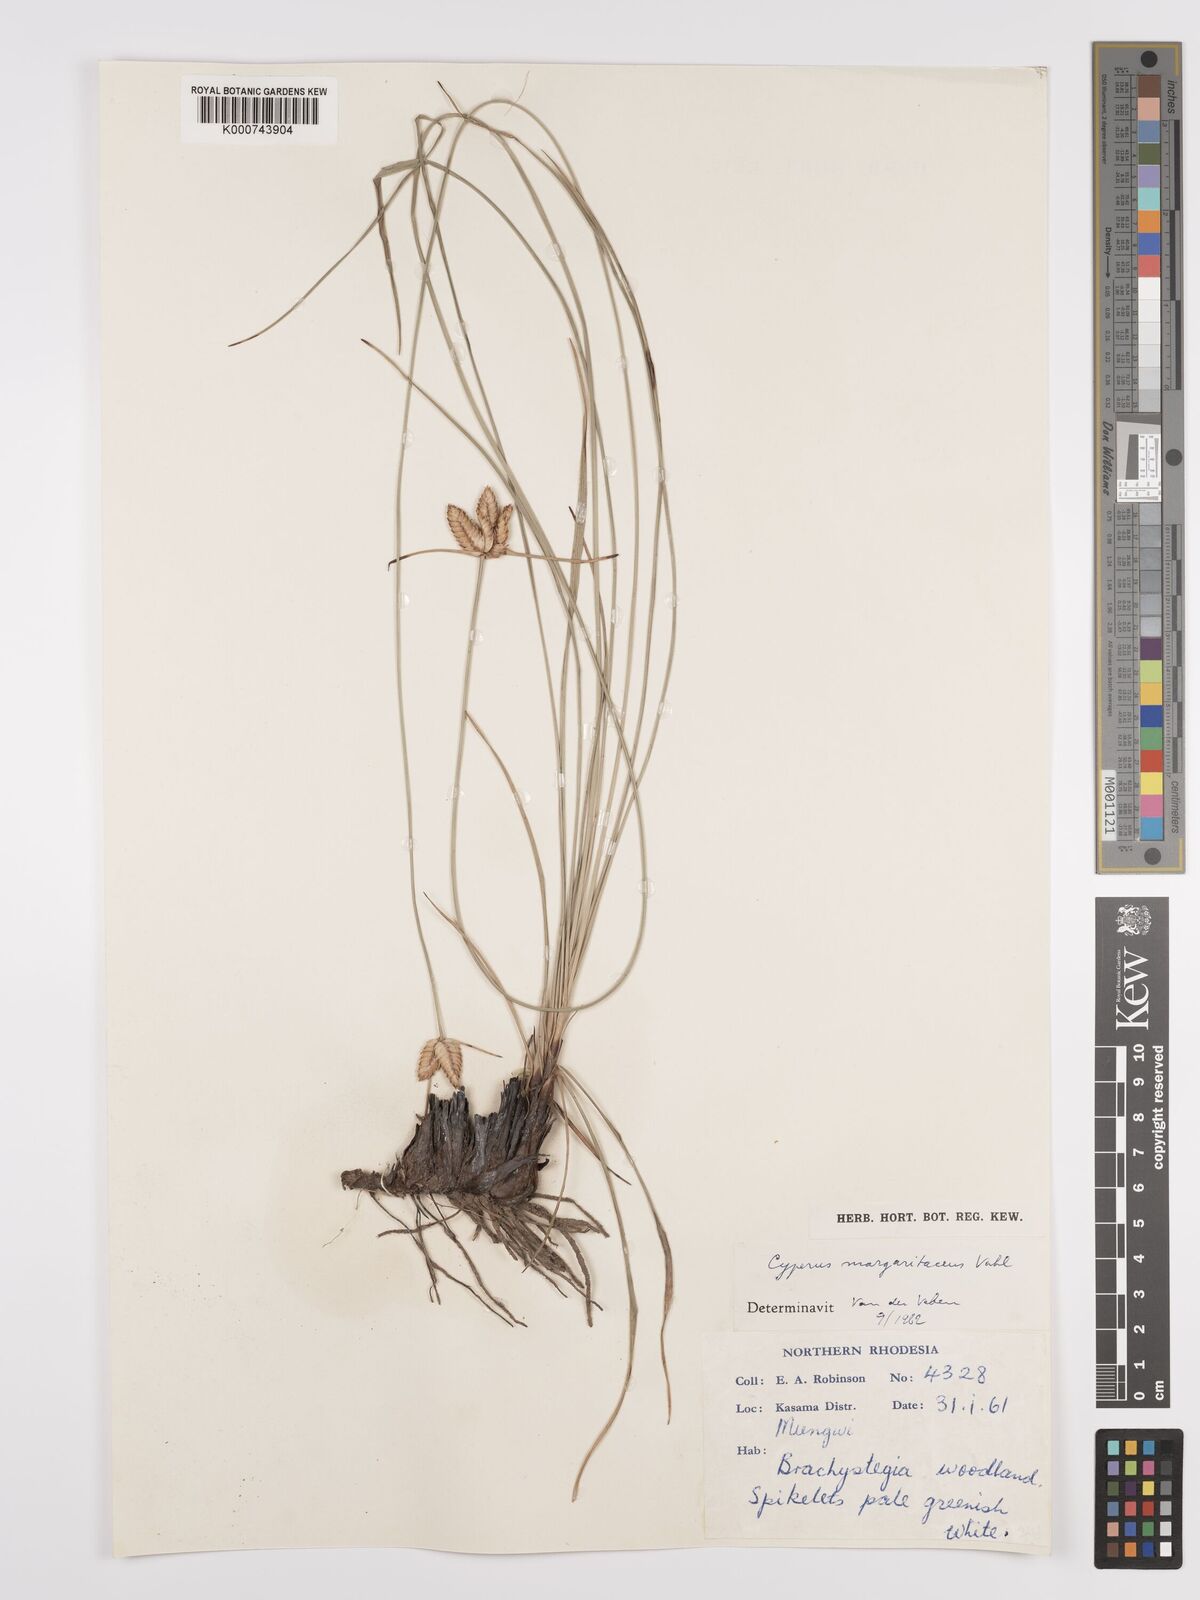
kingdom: Plantae
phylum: Tracheophyta
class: Liliopsida
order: Poales
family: Cyperaceae
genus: Cyperus
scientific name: Cyperus margaritaceus
